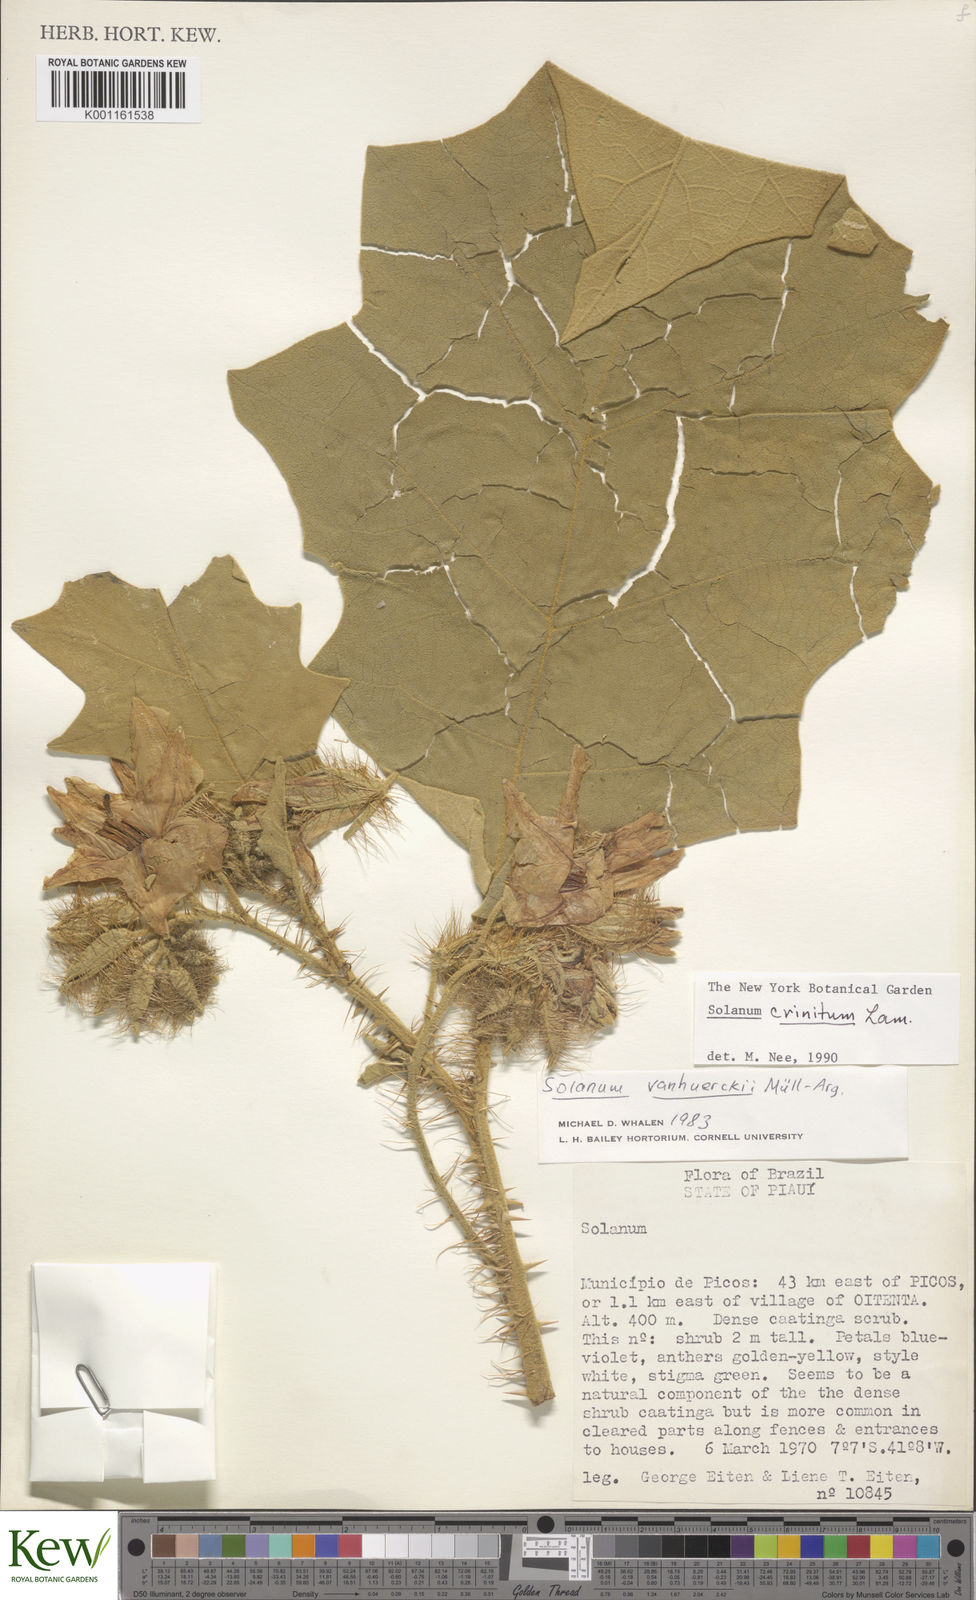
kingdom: Plantae
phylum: Tracheophyta
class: Magnoliopsida
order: Solanales
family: Solanaceae
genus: Solanum
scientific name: Solanum crinitum
